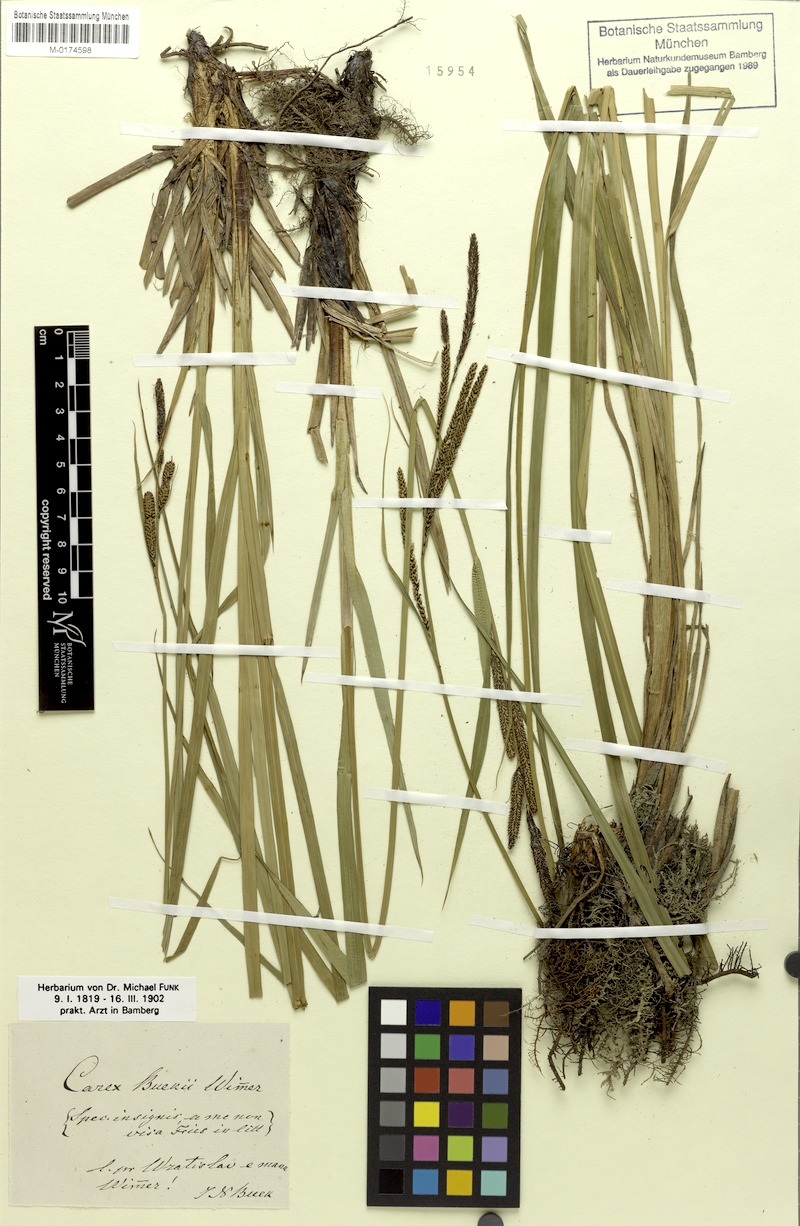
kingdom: Plantae
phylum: Tracheophyta
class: Liliopsida
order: Poales
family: Cyperaceae
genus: Carex
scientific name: Carex buekii
